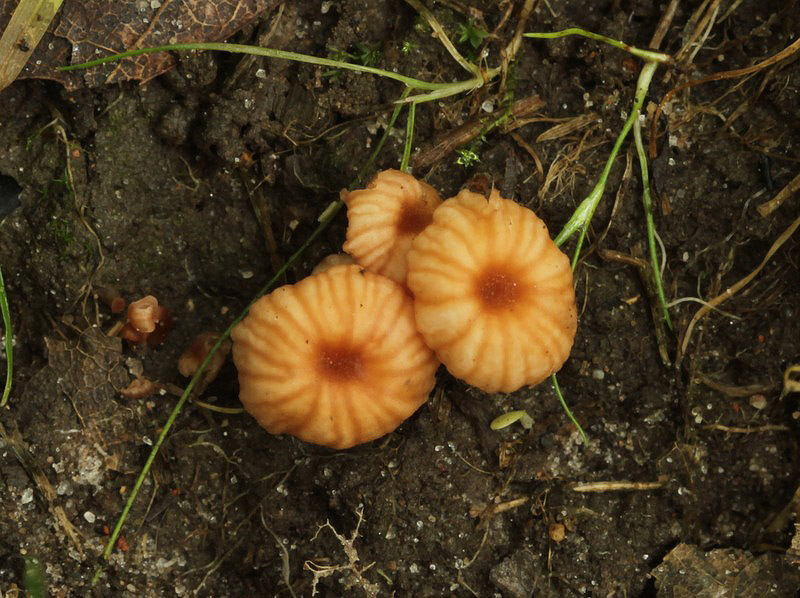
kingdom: Fungi
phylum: Basidiomycota
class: Agaricomycetes
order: Agaricales
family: Hydnangiaceae
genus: Laccaria
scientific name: Laccaria tortilis
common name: krybende ametysthat
